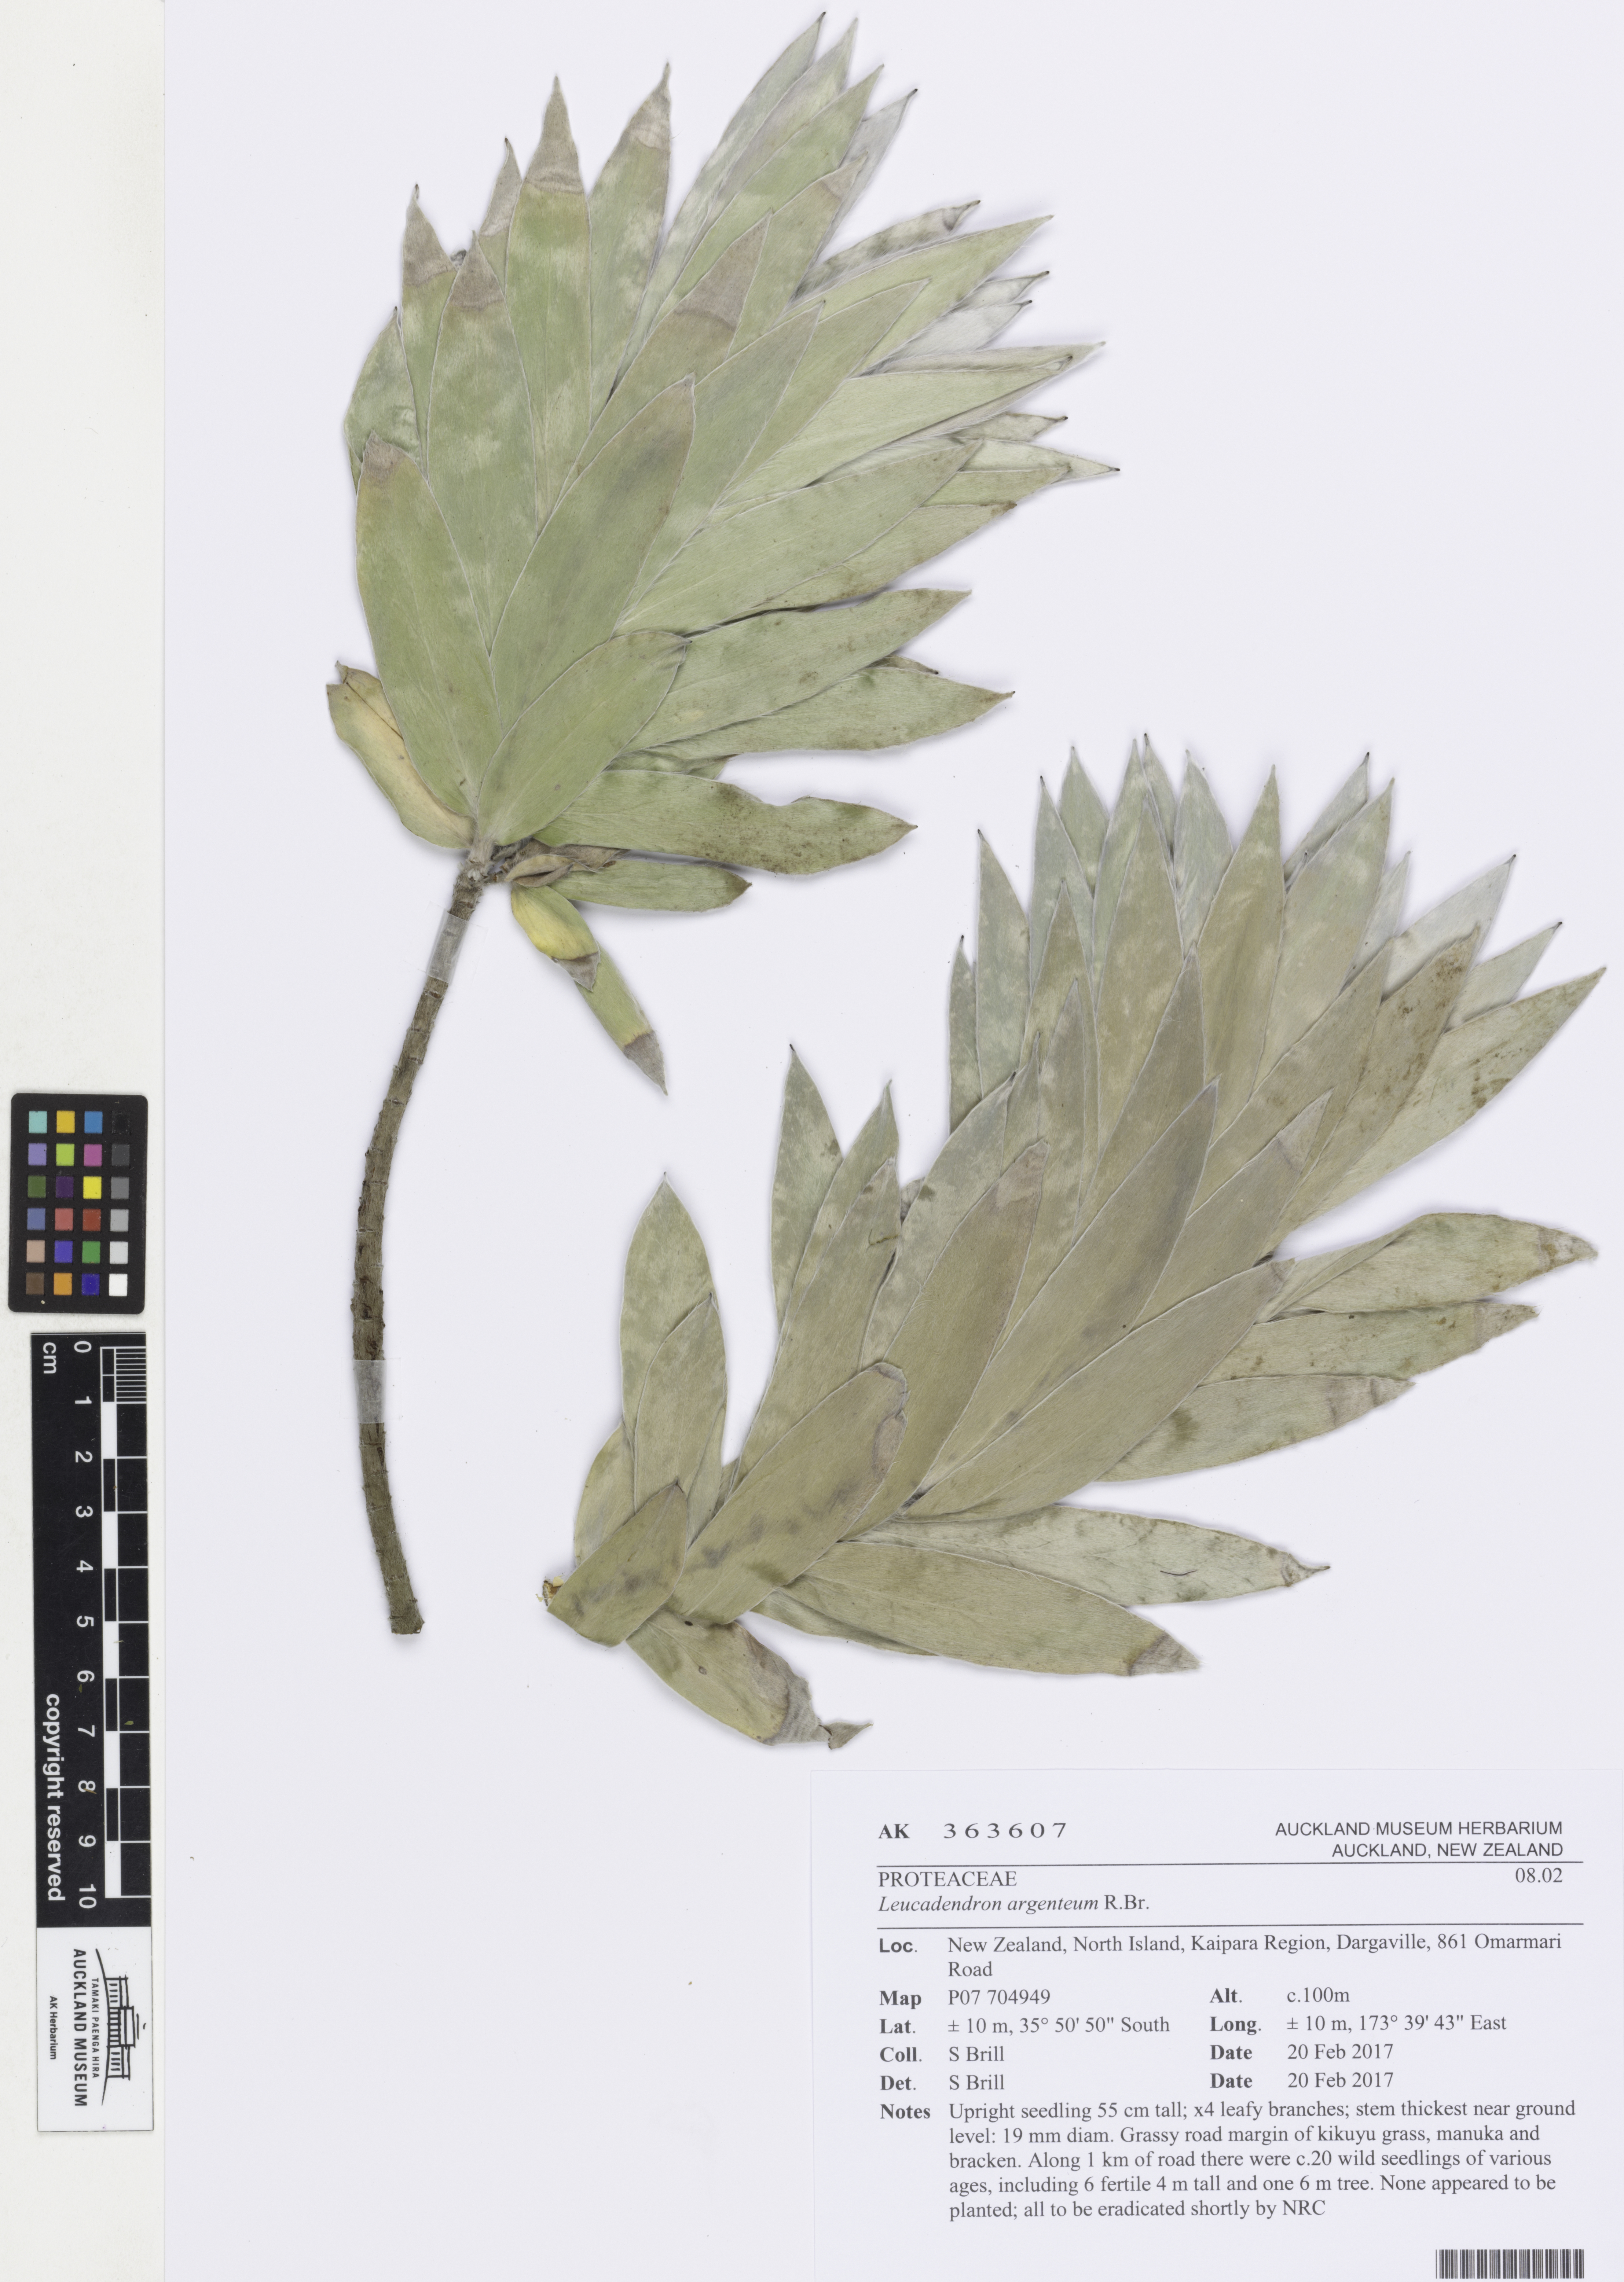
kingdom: Plantae
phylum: Tracheophyta
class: Magnoliopsida
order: Proteales
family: Proteaceae
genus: Leucadendron
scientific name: Leucadendron argenteum
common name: Cape silver tree
